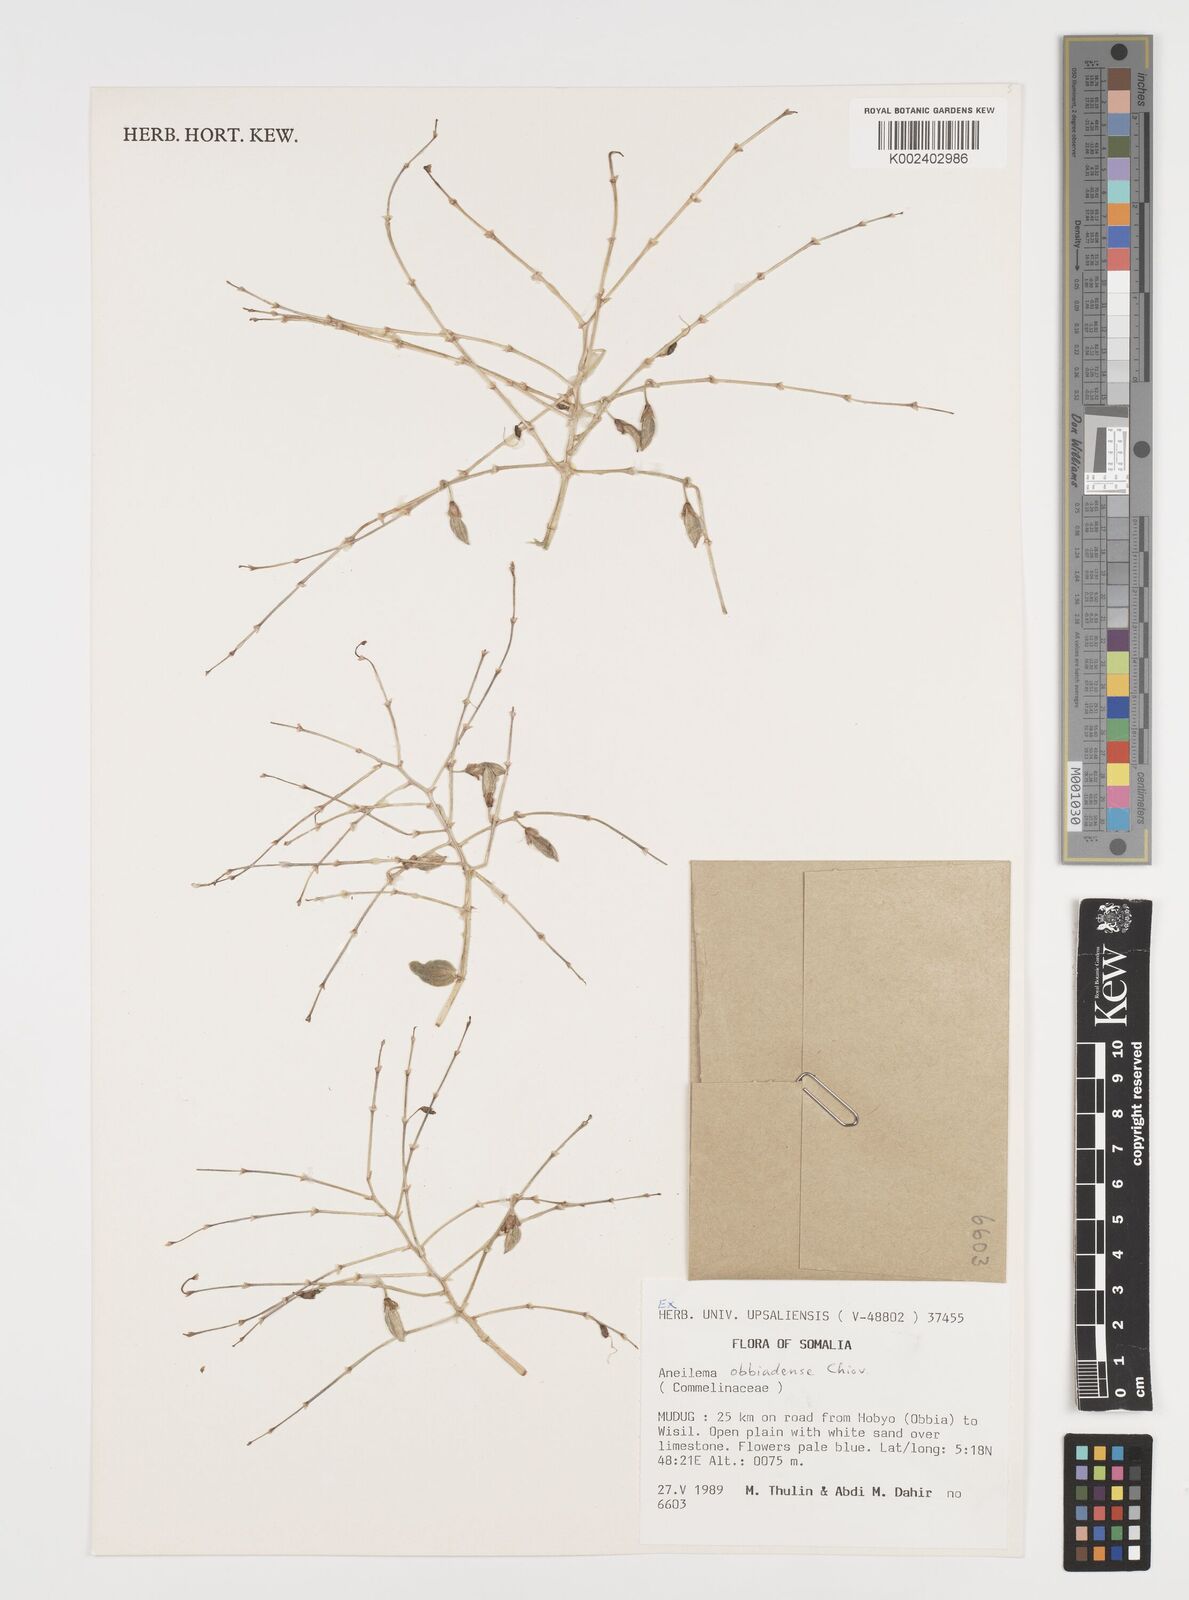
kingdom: Plantae
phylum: Tracheophyta
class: Liliopsida
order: Commelinales
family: Commelinaceae
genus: Aneilema
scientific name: Aneilema obbiadense
